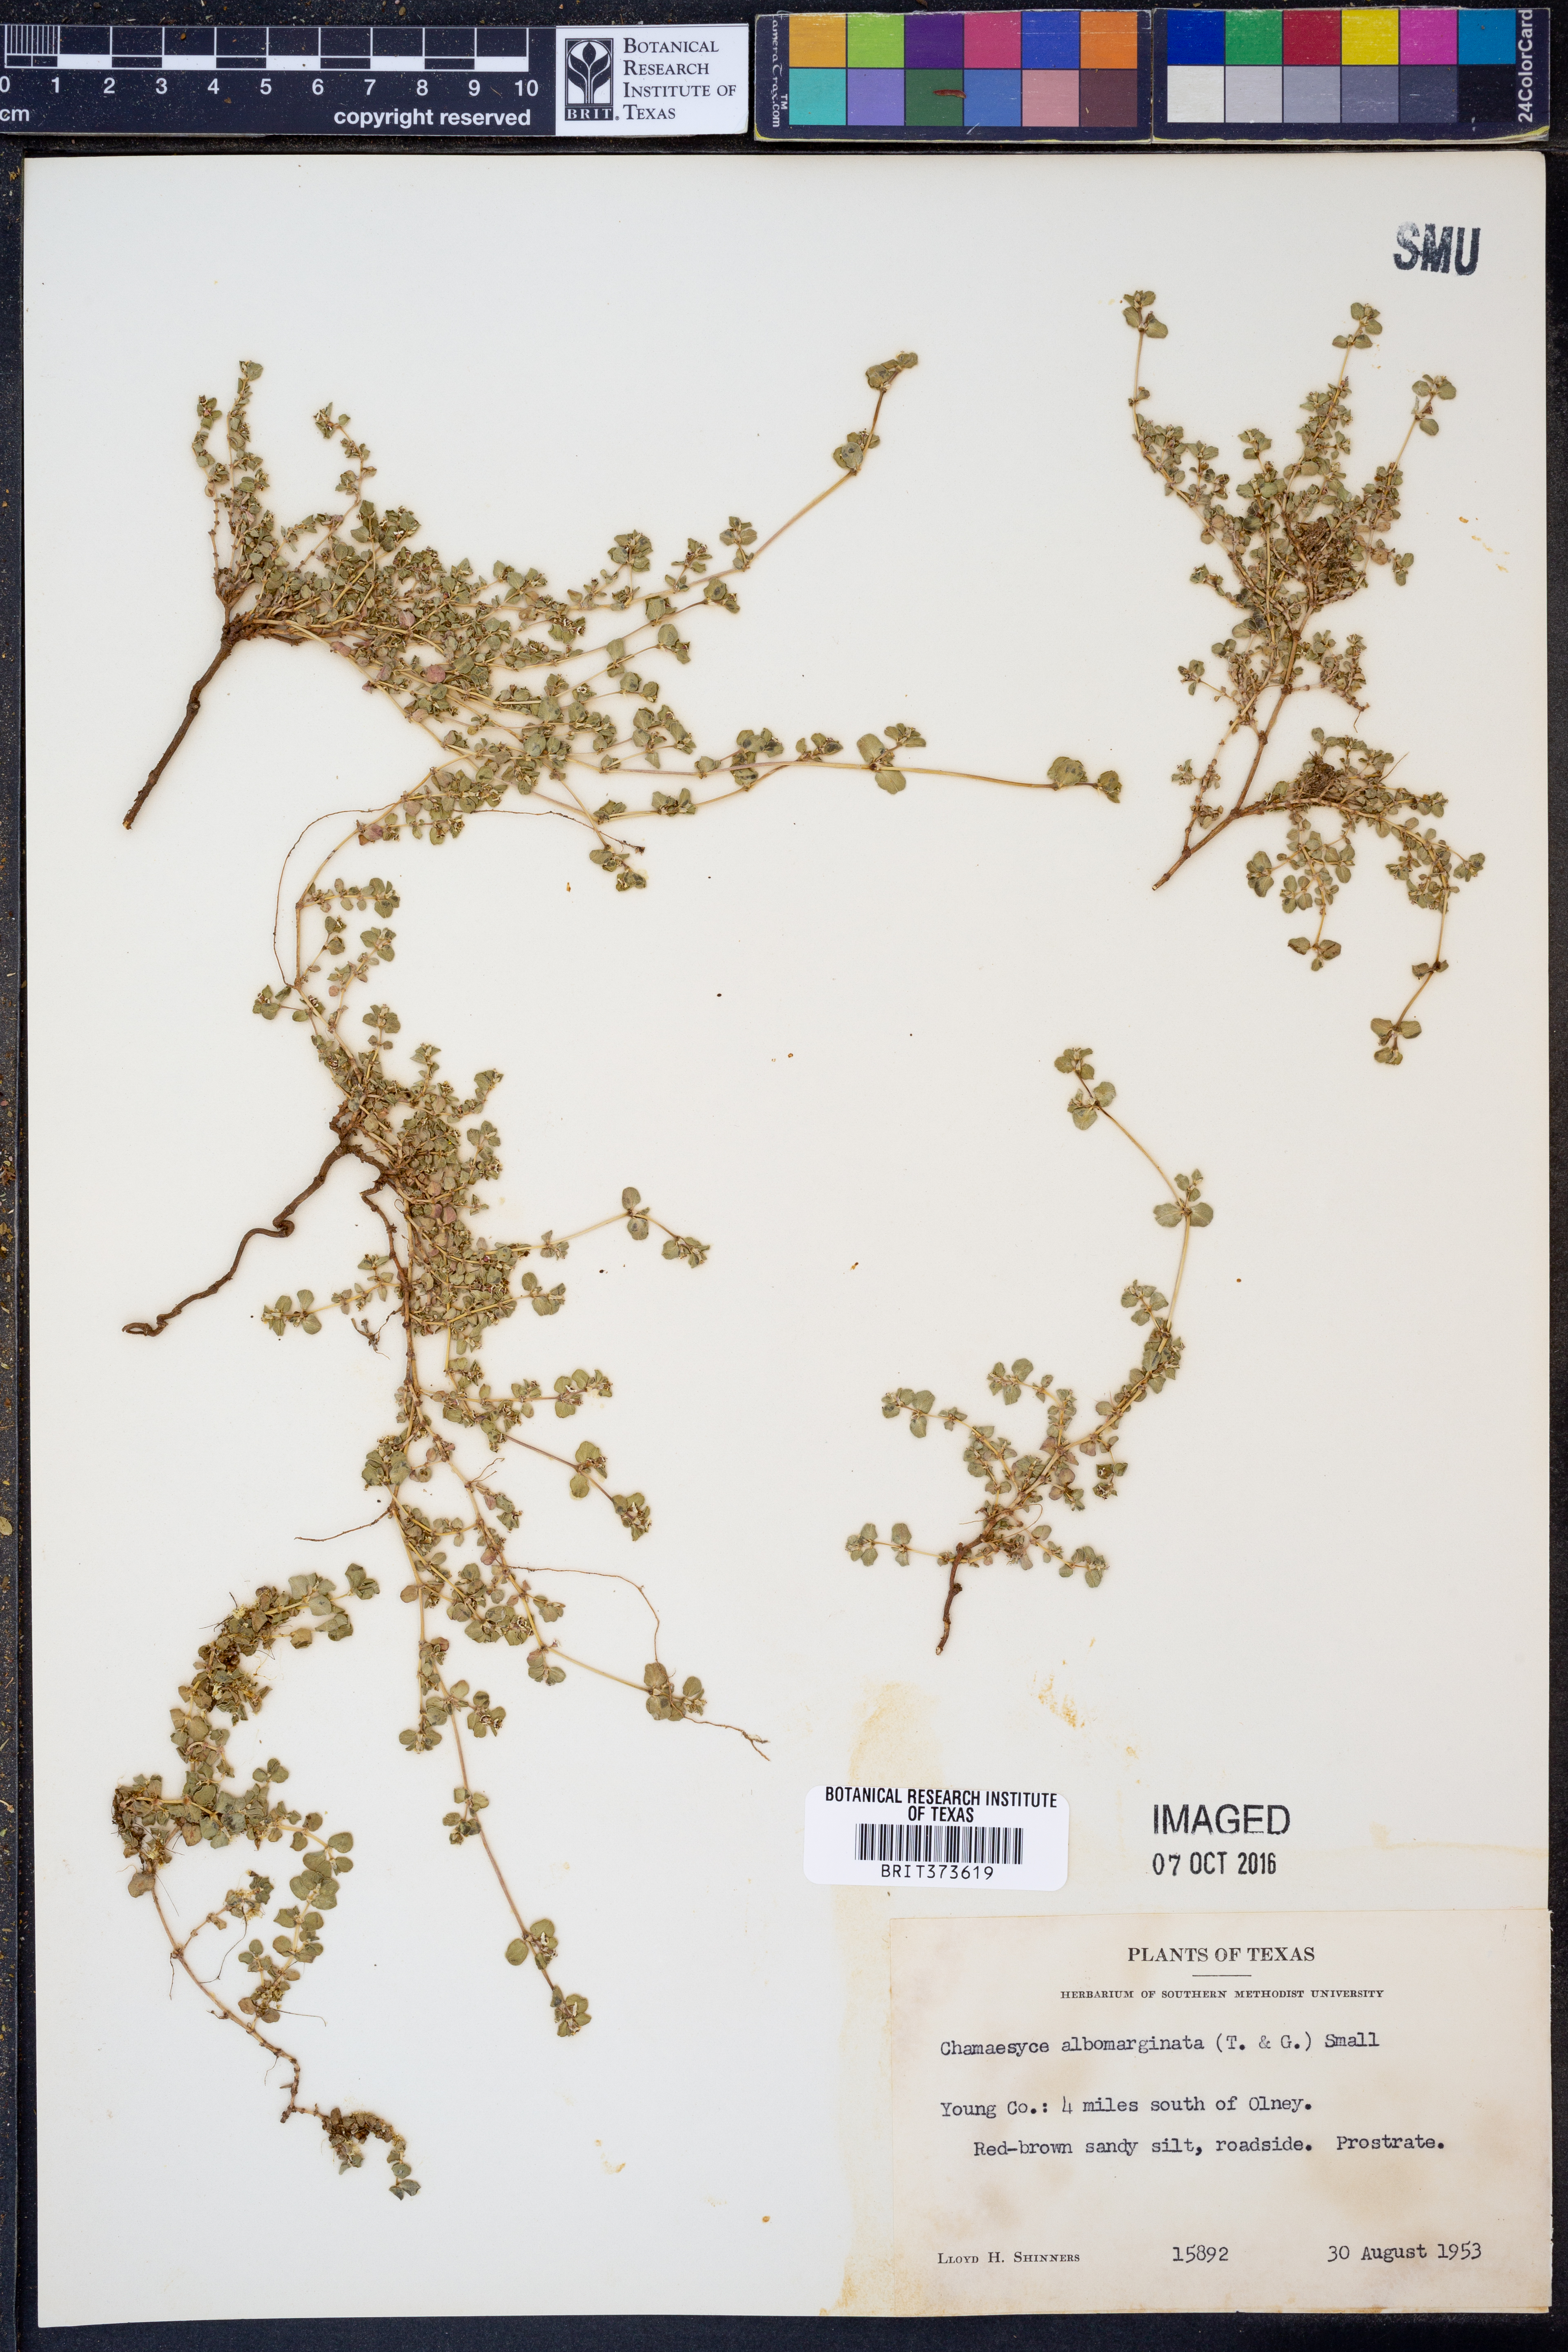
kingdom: Plantae
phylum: Tracheophyta
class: Magnoliopsida
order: Malpighiales
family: Euphorbiaceae
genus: Euphorbia
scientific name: Euphorbia albomarginata
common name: Whitemargin sandmat
